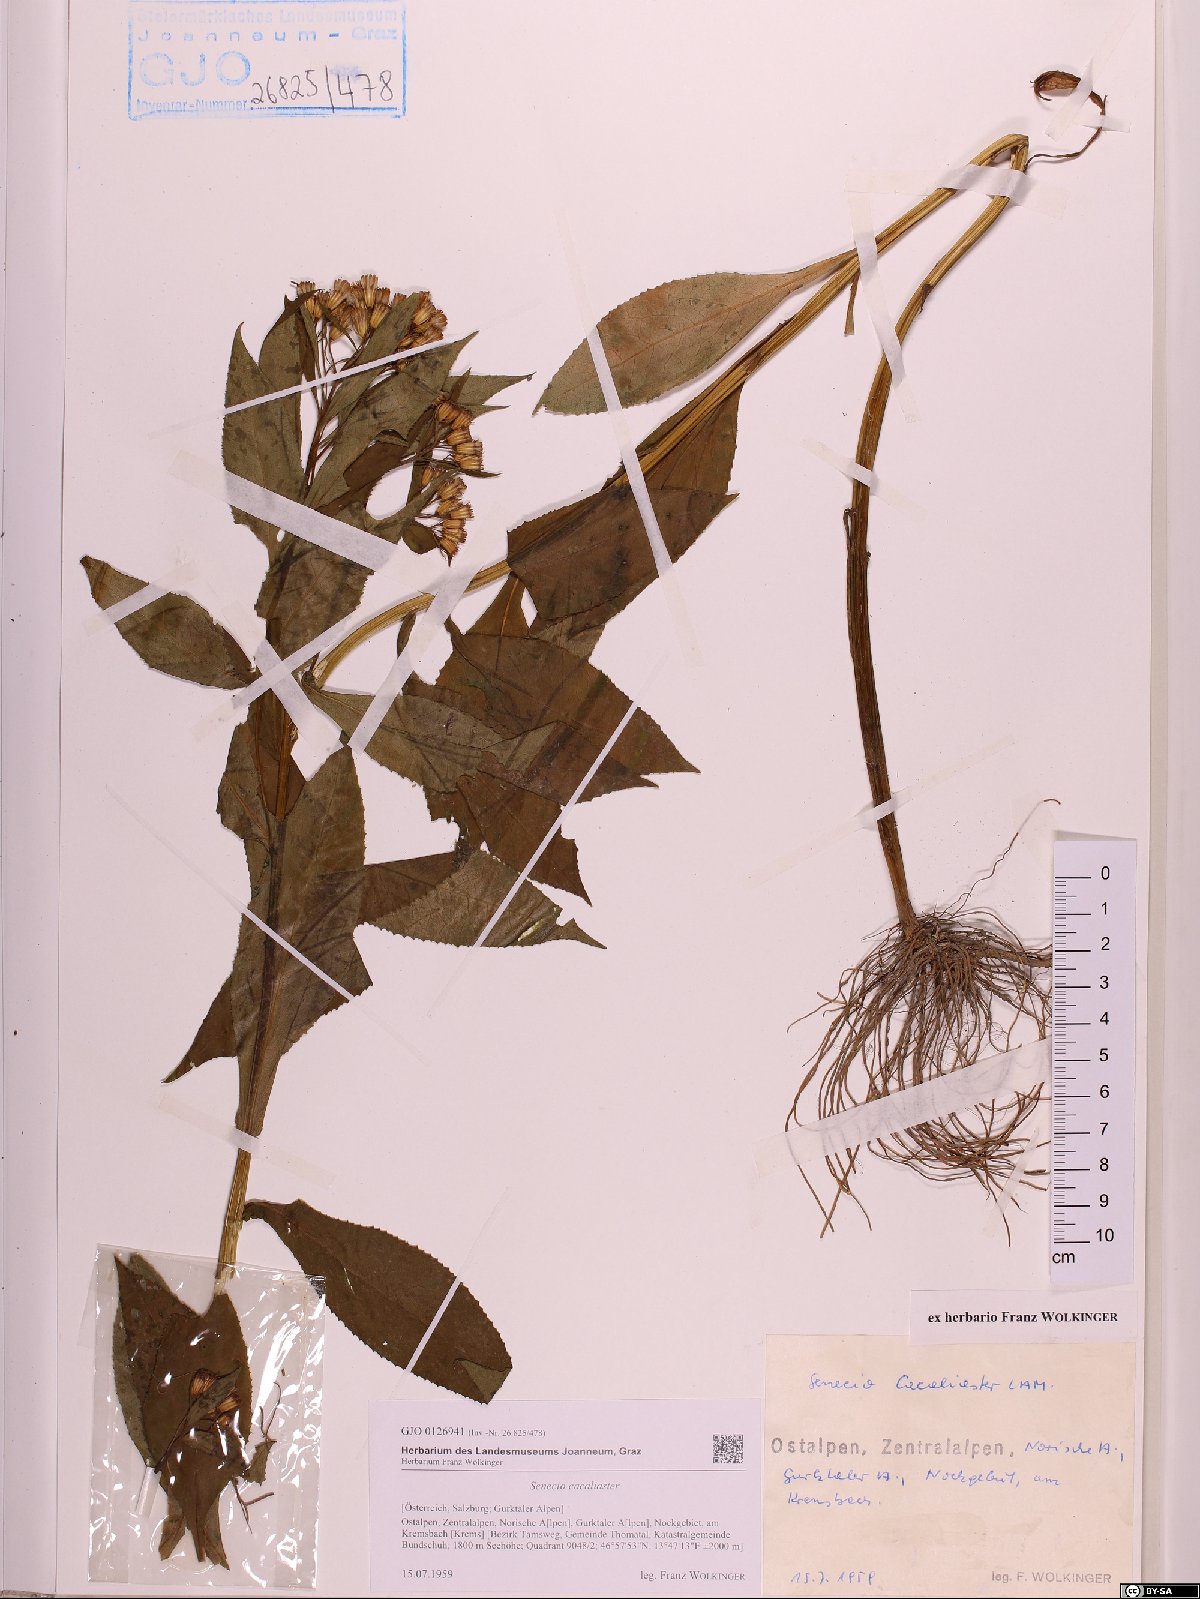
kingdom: Plantae
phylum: Tracheophyta
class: Magnoliopsida
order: Asterales
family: Asteraceae
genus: Senecio
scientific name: Senecio cacaliaster
